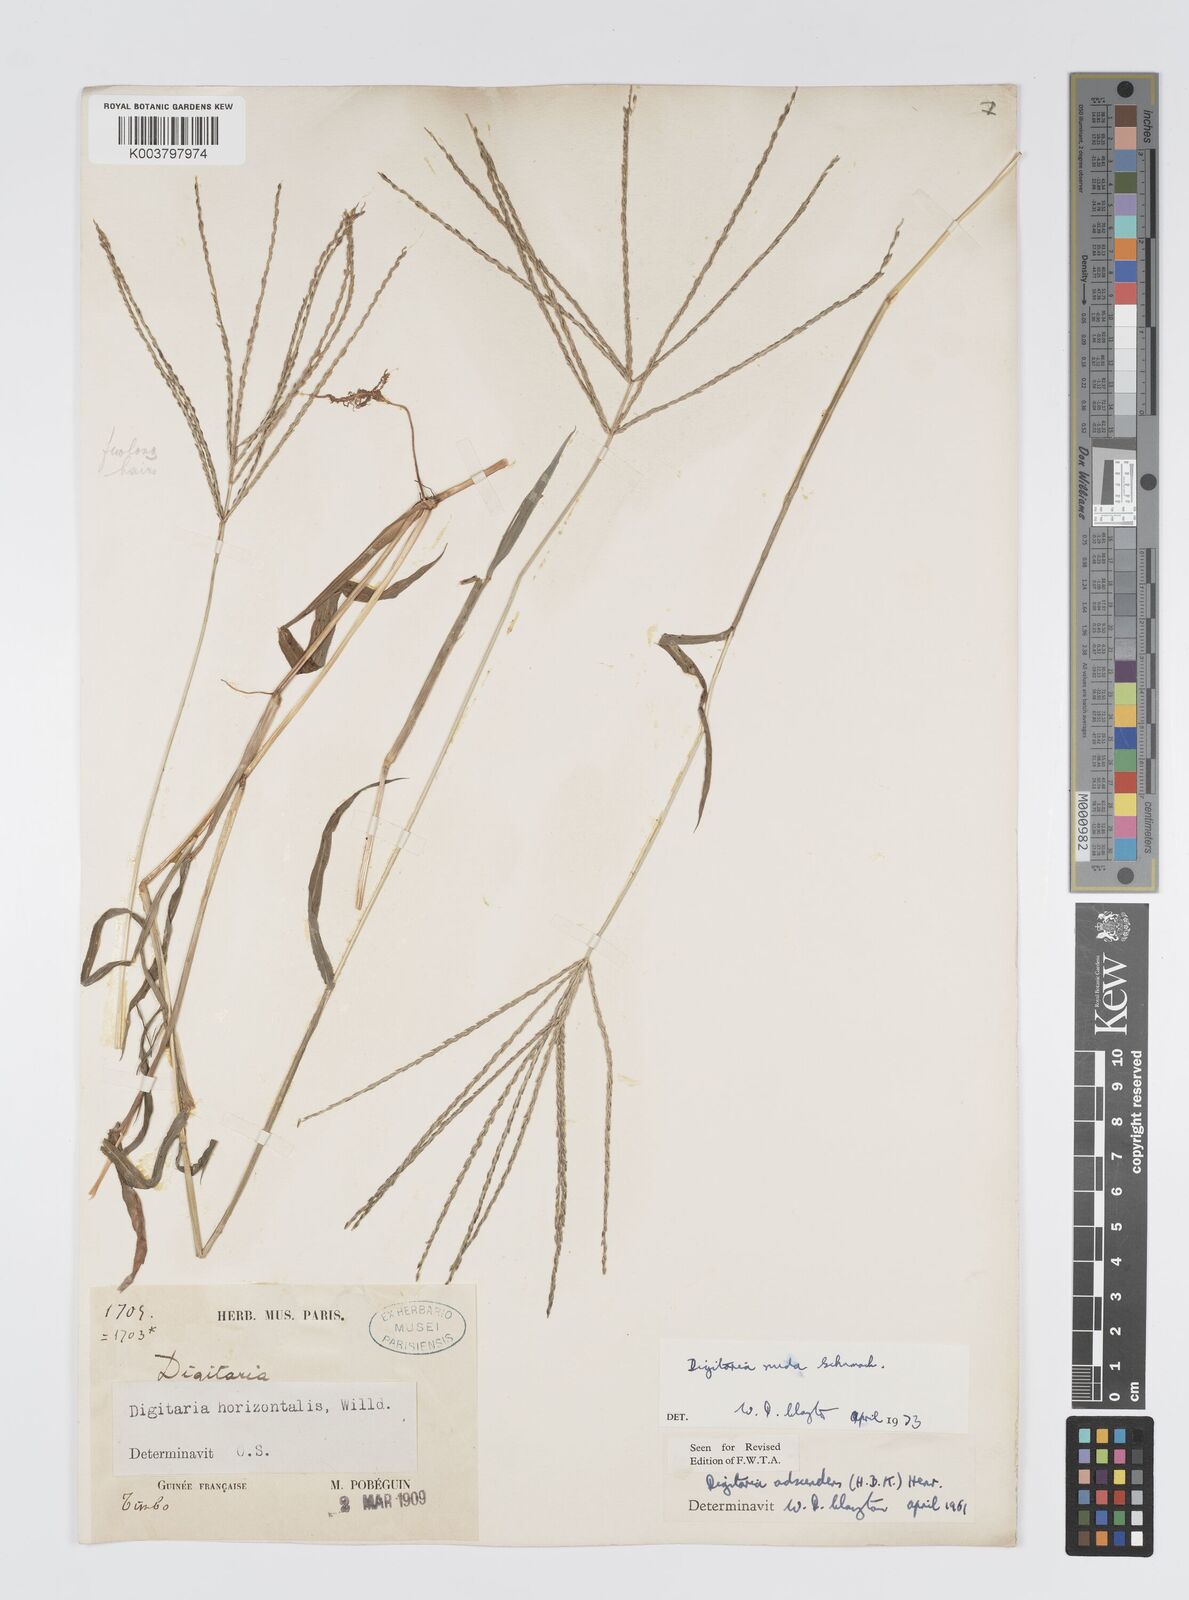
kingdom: Plantae
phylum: Tracheophyta
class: Liliopsida
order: Poales
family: Poaceae
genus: Digitaria
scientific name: Digitaria nuda
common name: Naked crabgrass
